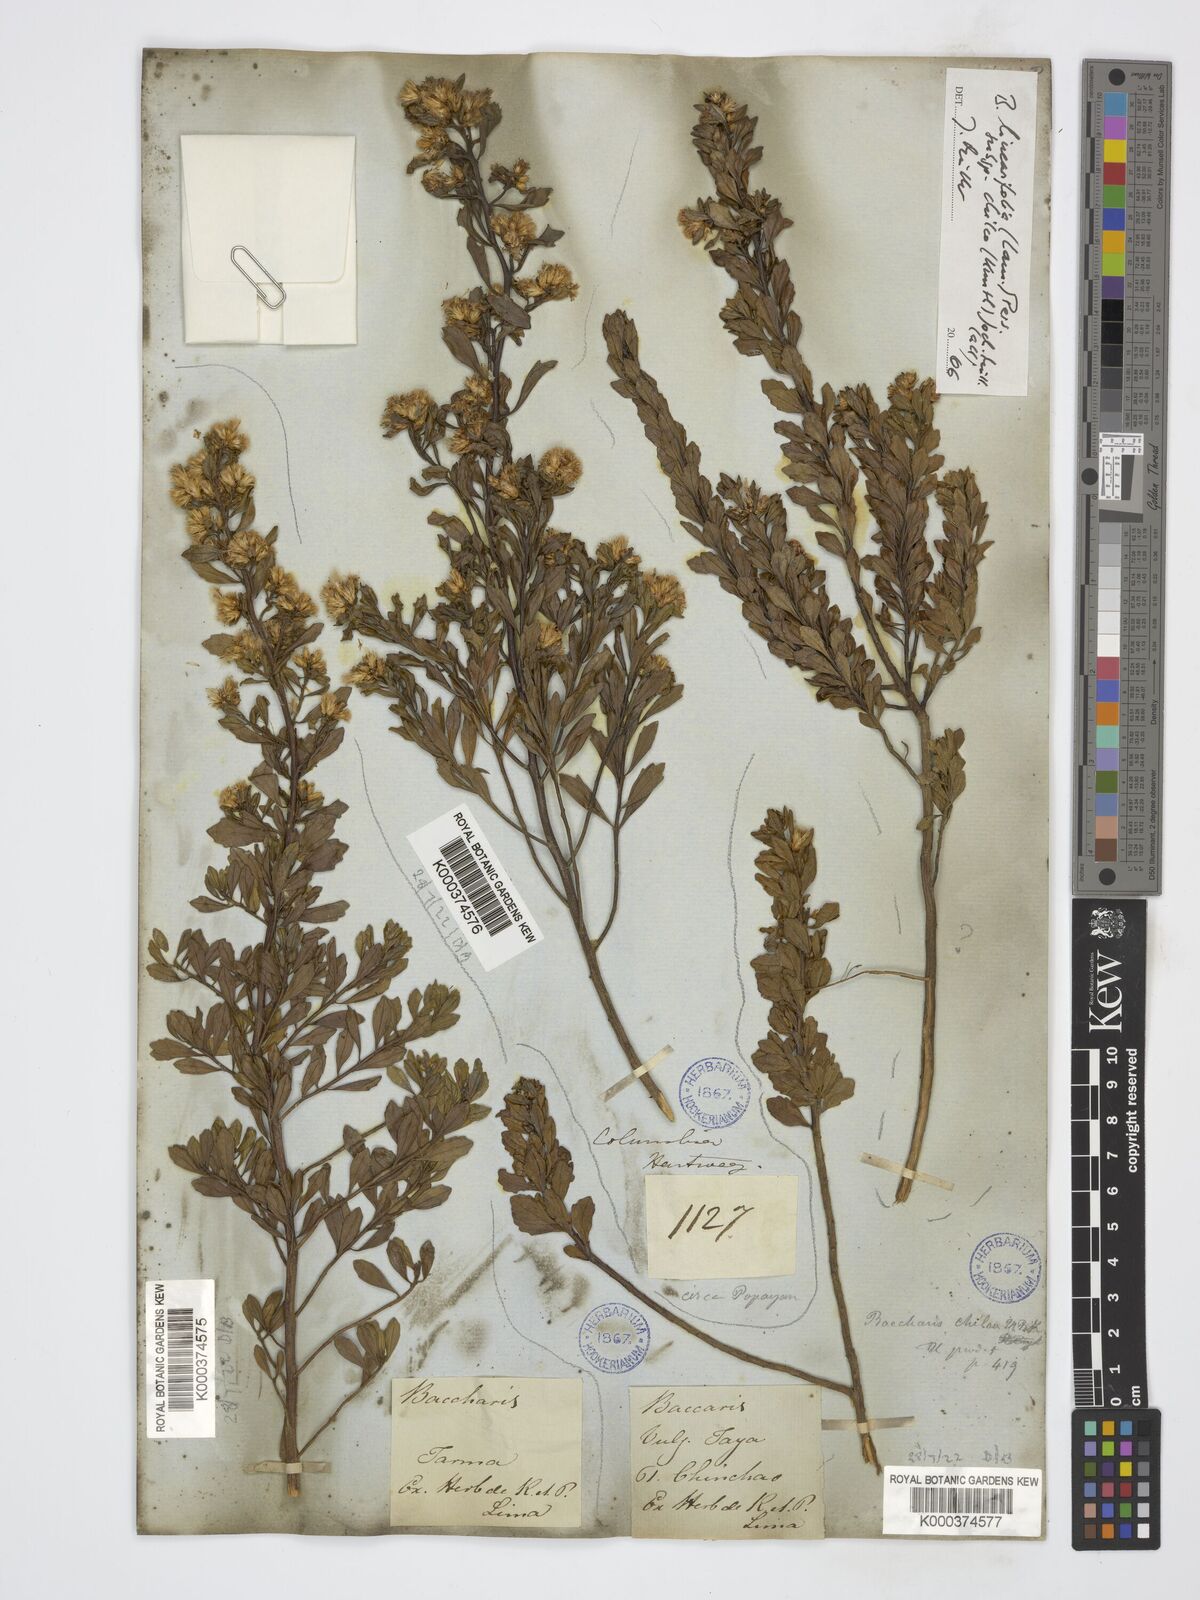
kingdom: Plantae
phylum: Tracheophyta
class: Magnoliopsida
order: Asterales
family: Asteraceae
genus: Baccharis
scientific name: Baccharis linearifolia
